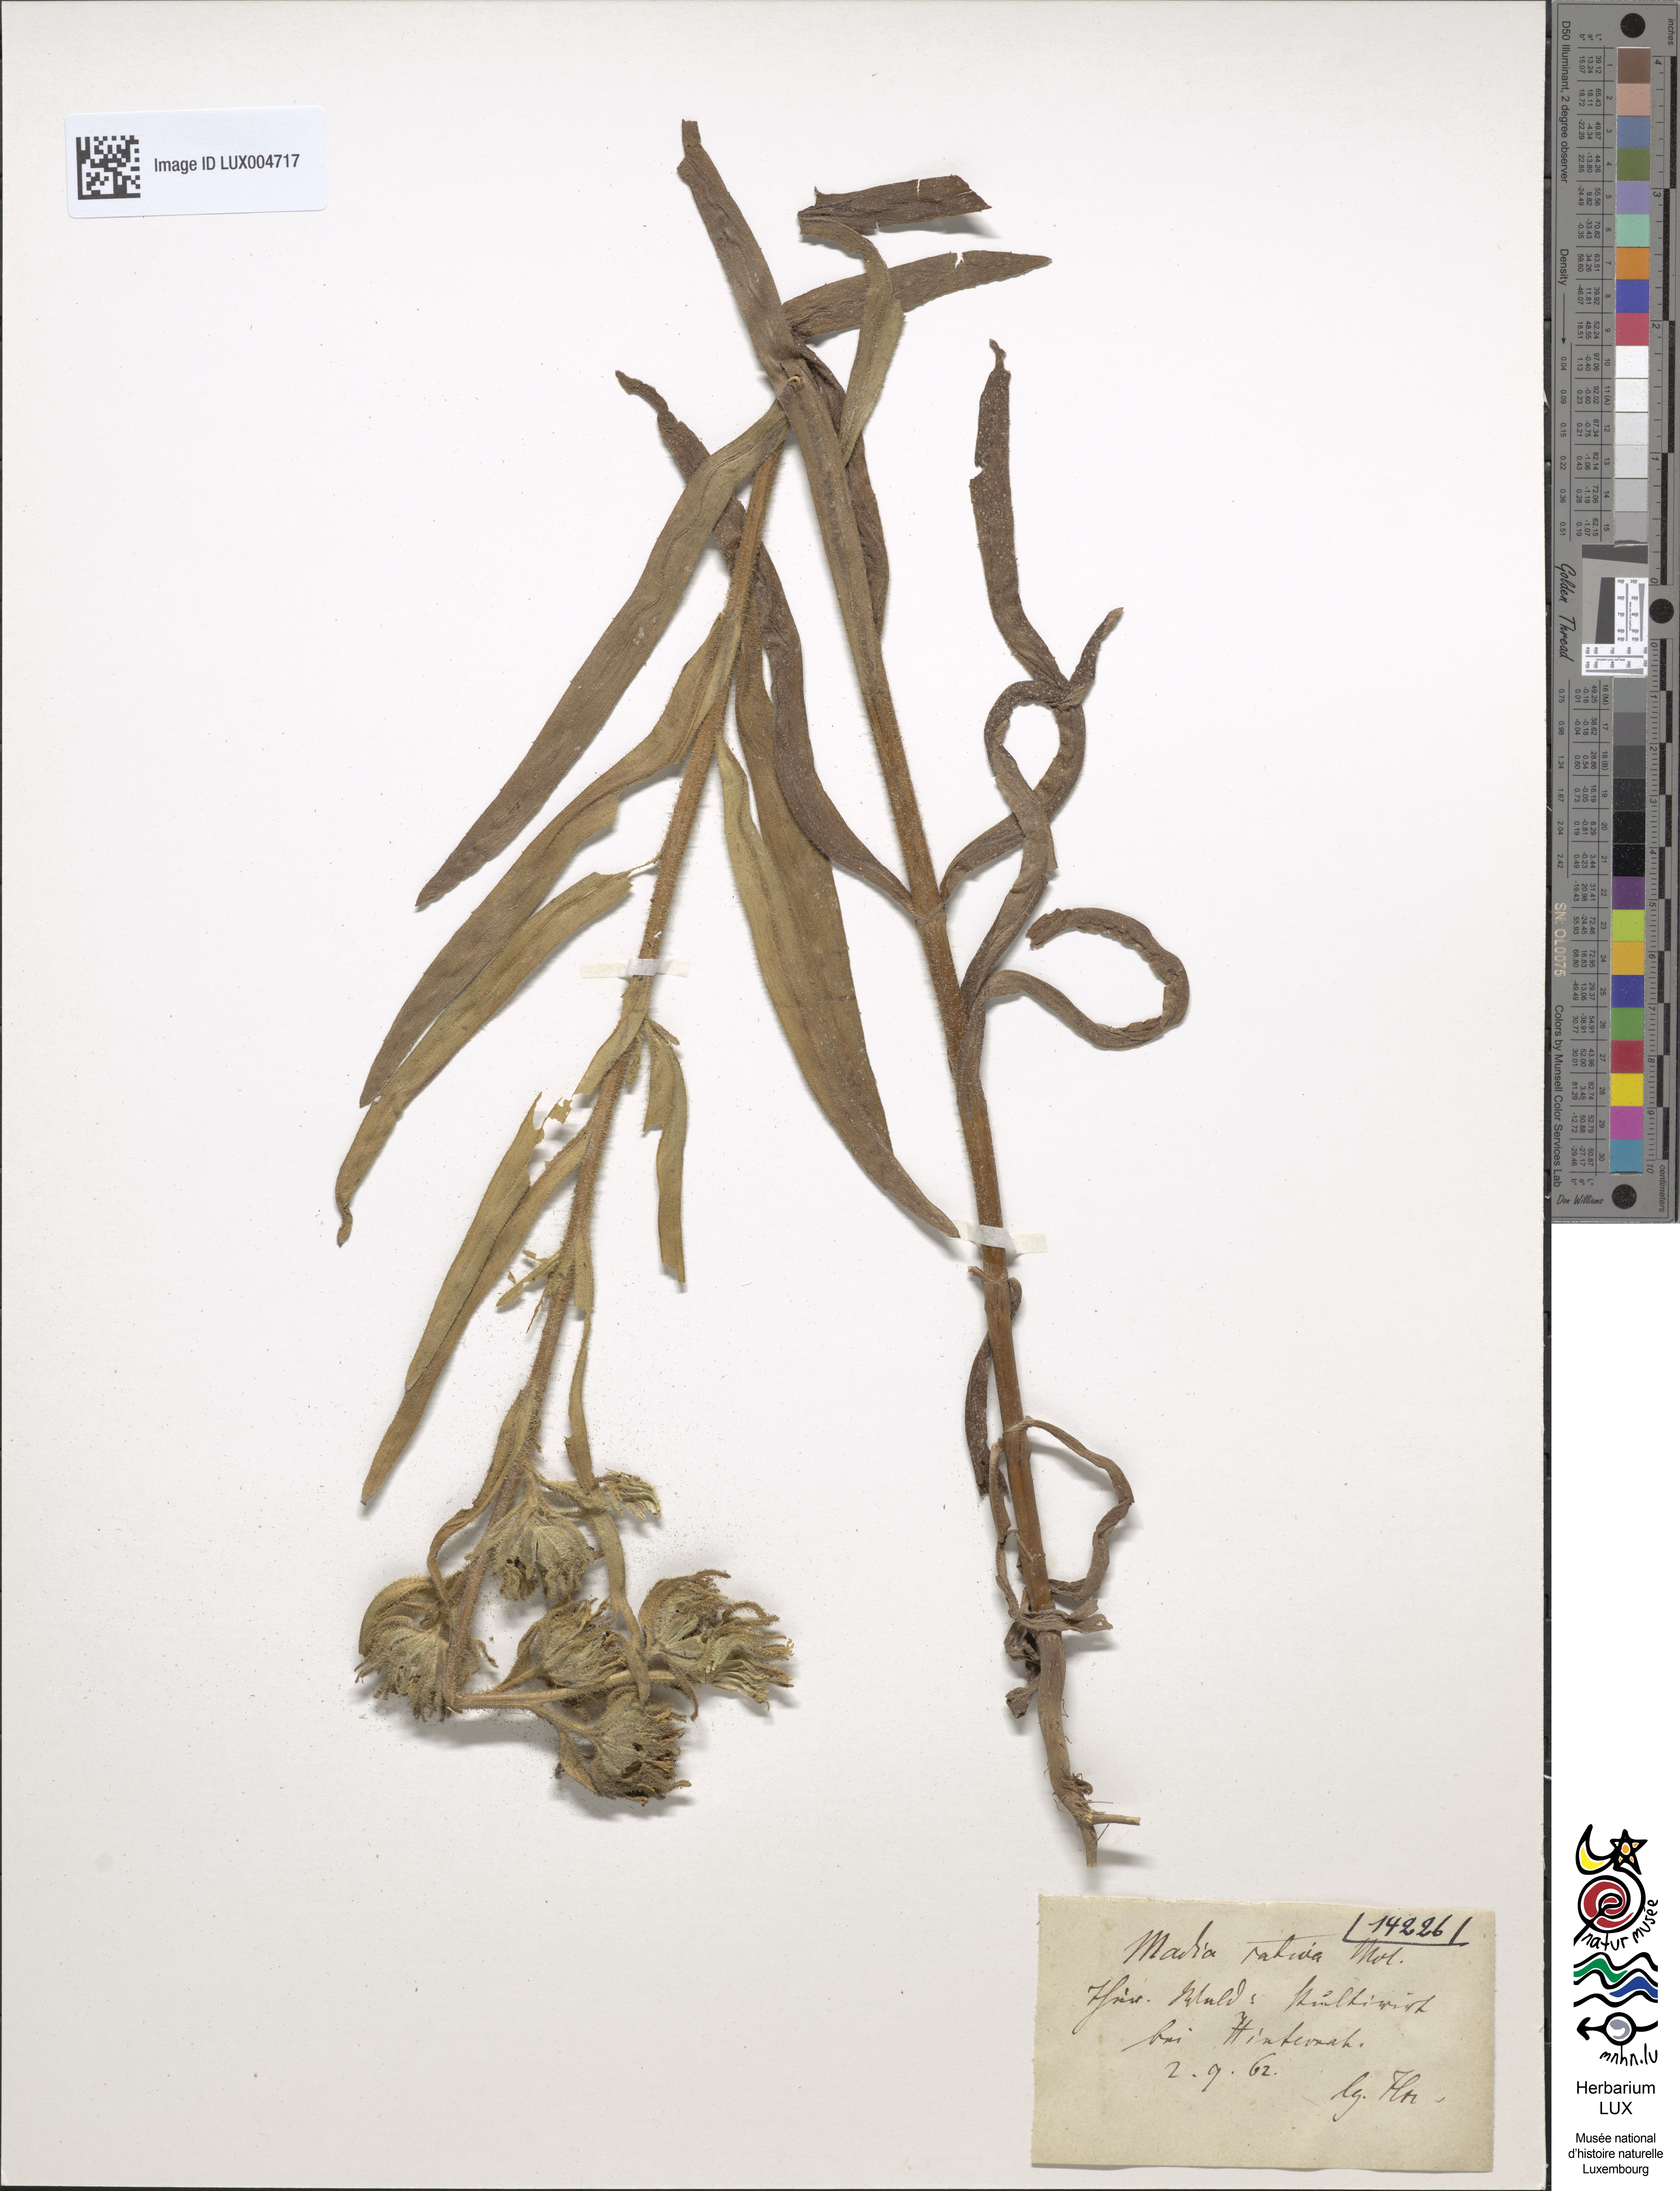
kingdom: Plantae
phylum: Tracheophyta
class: Magnoliopsida
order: Asterales
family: Asteraceae
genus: Madia
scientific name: Madia sativa
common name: Coast tarweed
